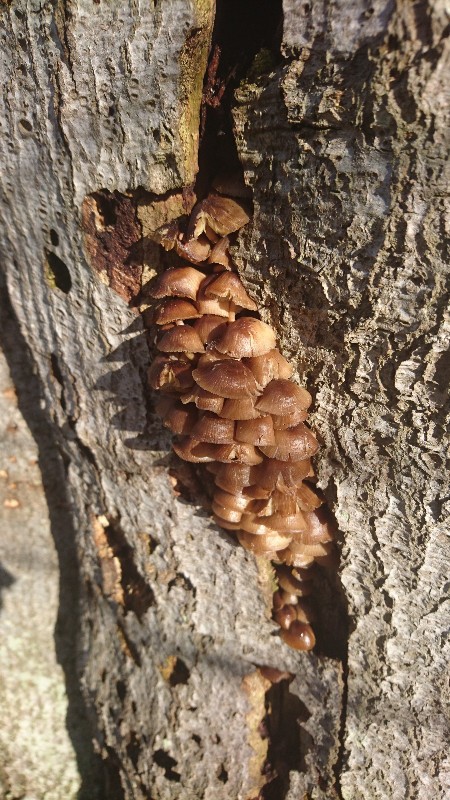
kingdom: Fungi
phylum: Basidiomycota
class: Agaricomycetes
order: Agaricales
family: Mycenaceae
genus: Mycena
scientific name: Mycena tintinnabulum
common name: vinter-huesvamp
